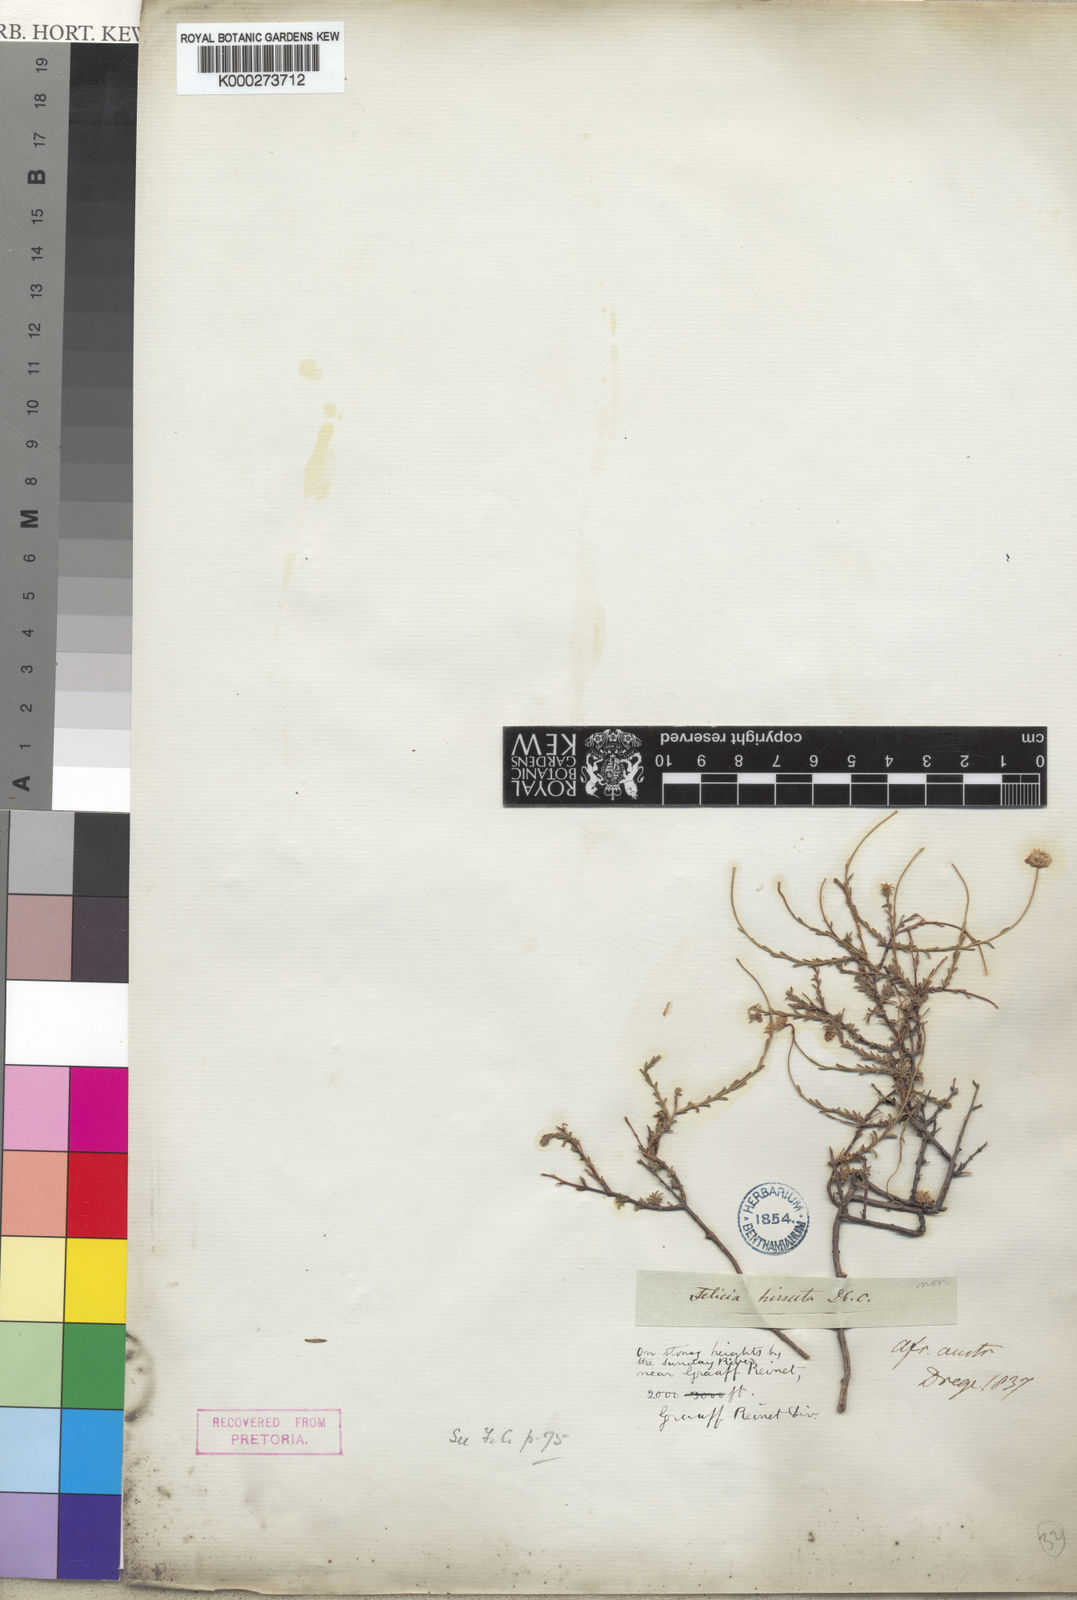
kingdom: Plantae
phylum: Tracheophyta
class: Magnoliopsida
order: Asterales
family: Asteraceae
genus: Felicia
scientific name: Felicia hirsuta
